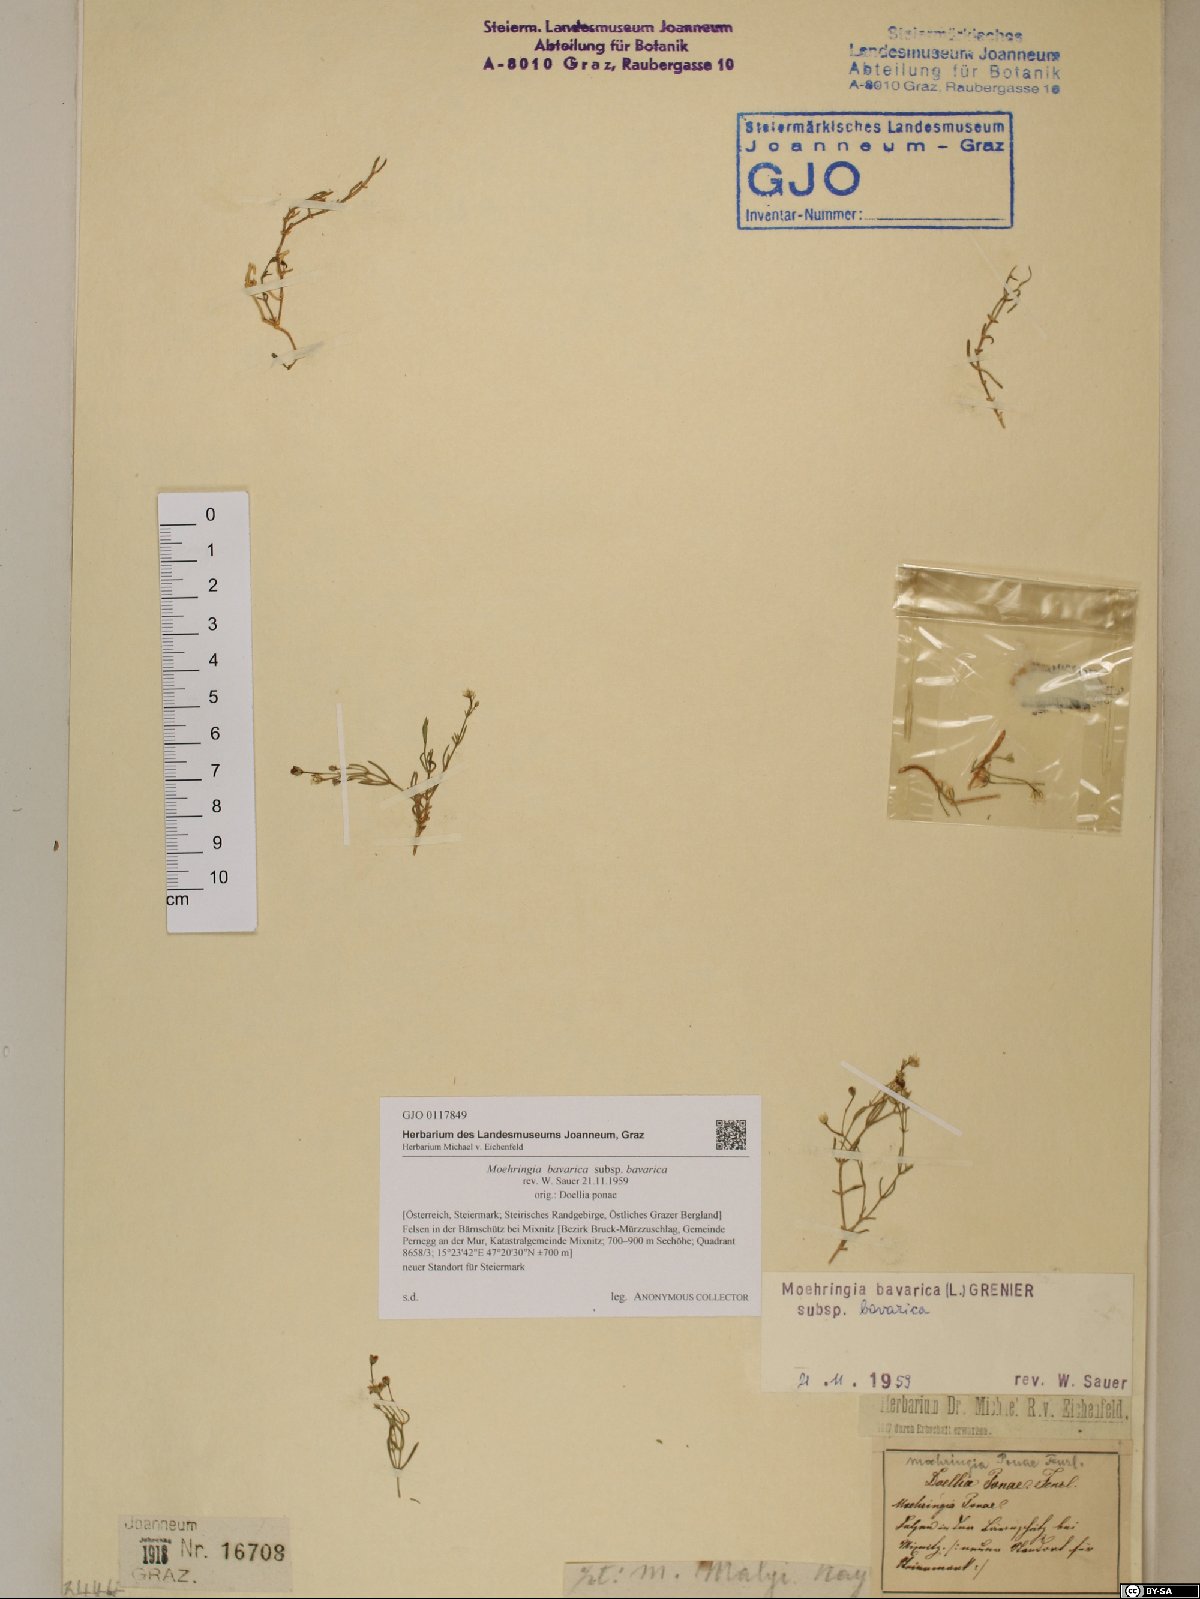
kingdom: Plantae
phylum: Tracheophyta
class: Magnoliopsida
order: Caryophyllales
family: Caryophyllaceae
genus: Moehringia
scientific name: Moehringia bavarica
